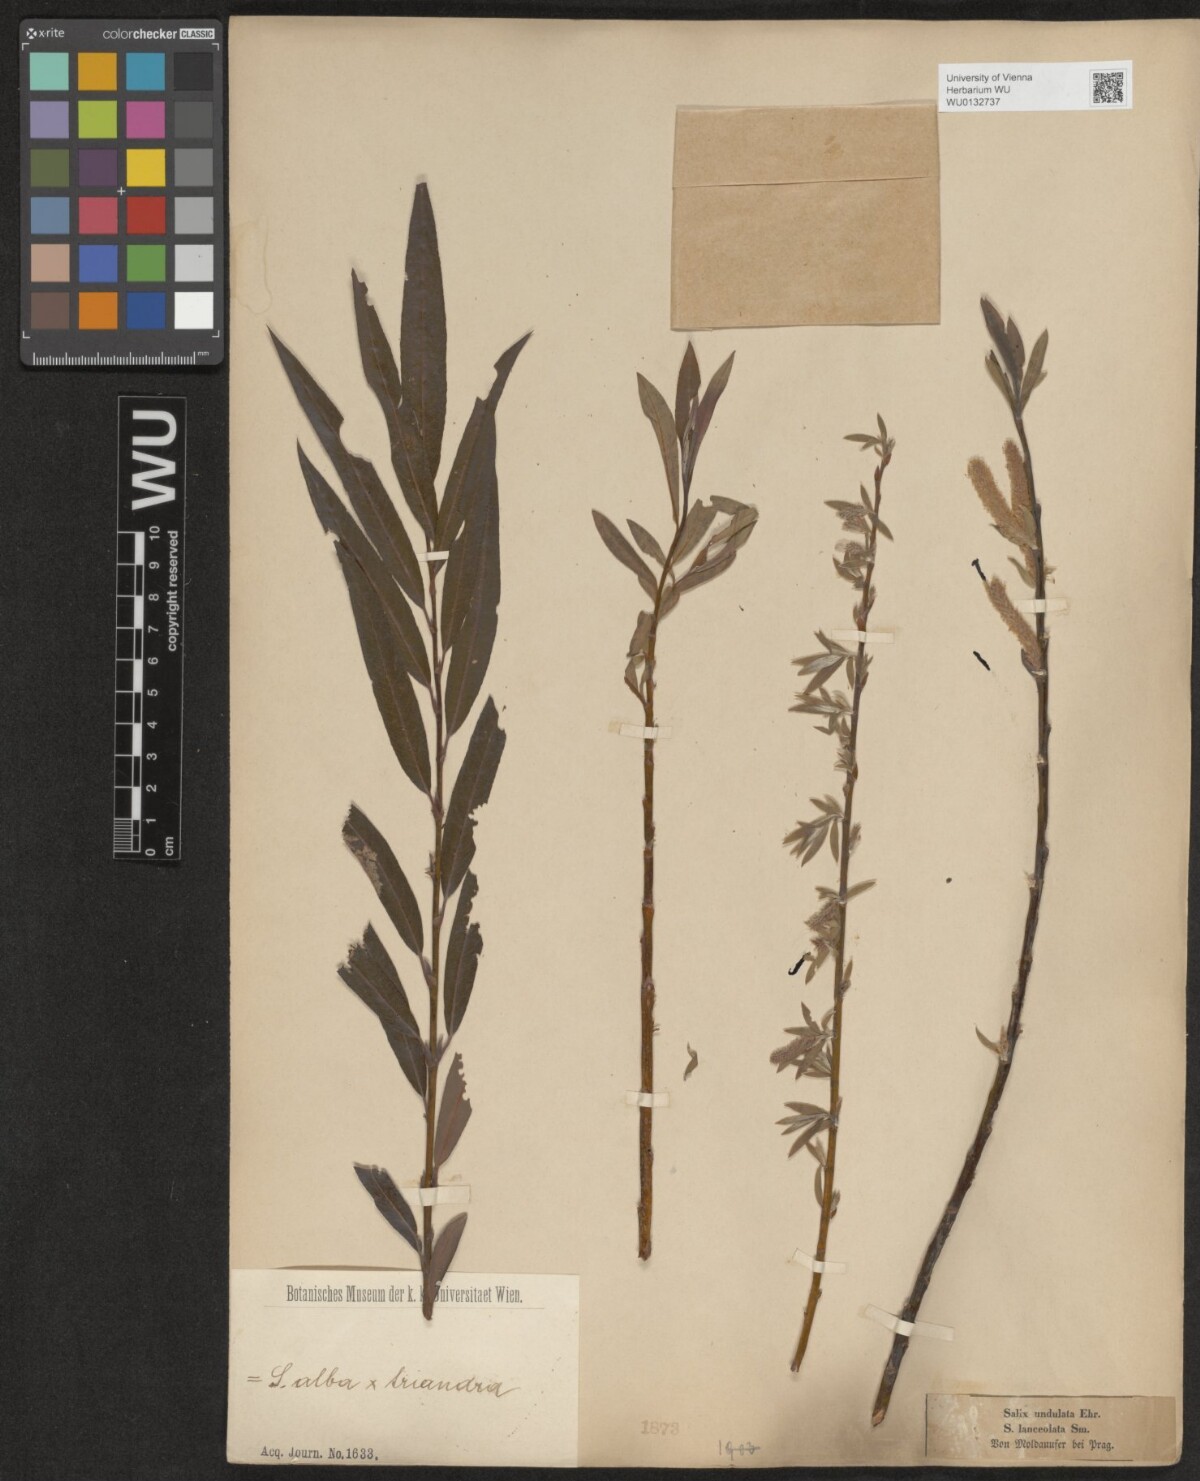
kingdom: Plantae
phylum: Tracheophyta
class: Magnoliopsida
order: Malpighiales
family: Salicaceae
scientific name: Salicaceae
